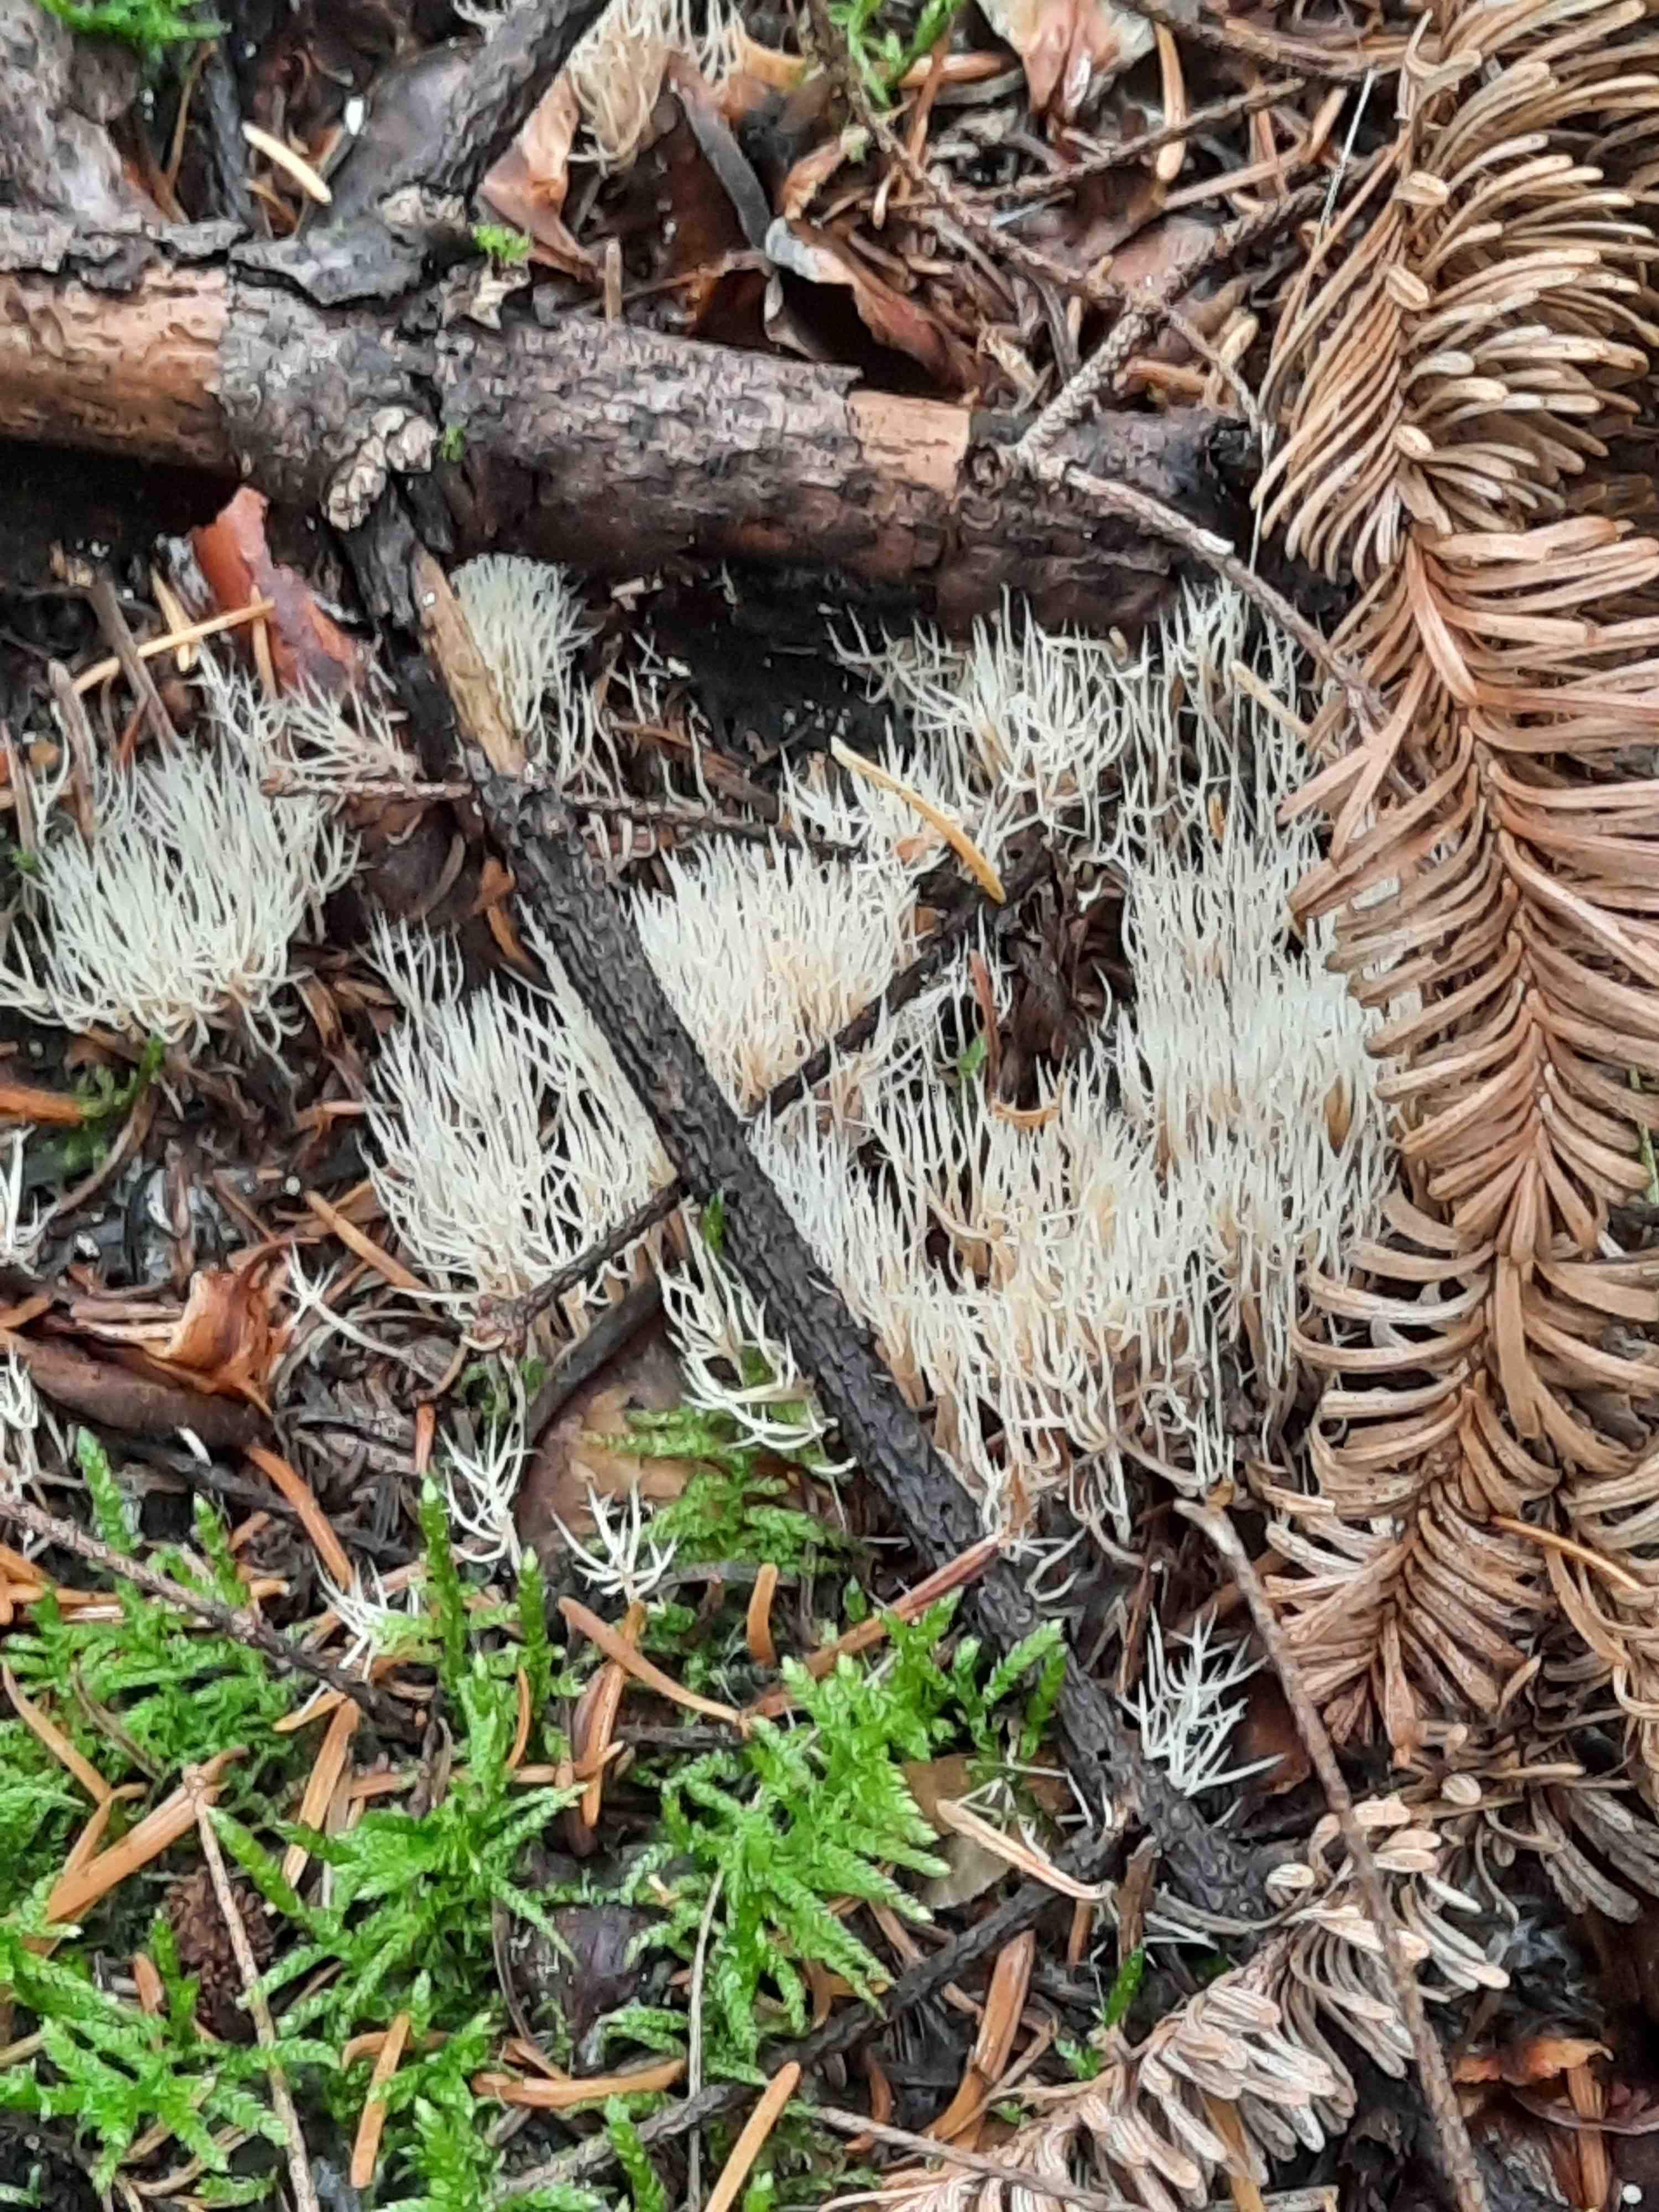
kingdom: Fungi
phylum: Basidiomycota
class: Agaricomycetes
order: Agaricales
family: Pterulaceae
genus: Pterula
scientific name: Pterula multifida
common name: busket fjerkølle
